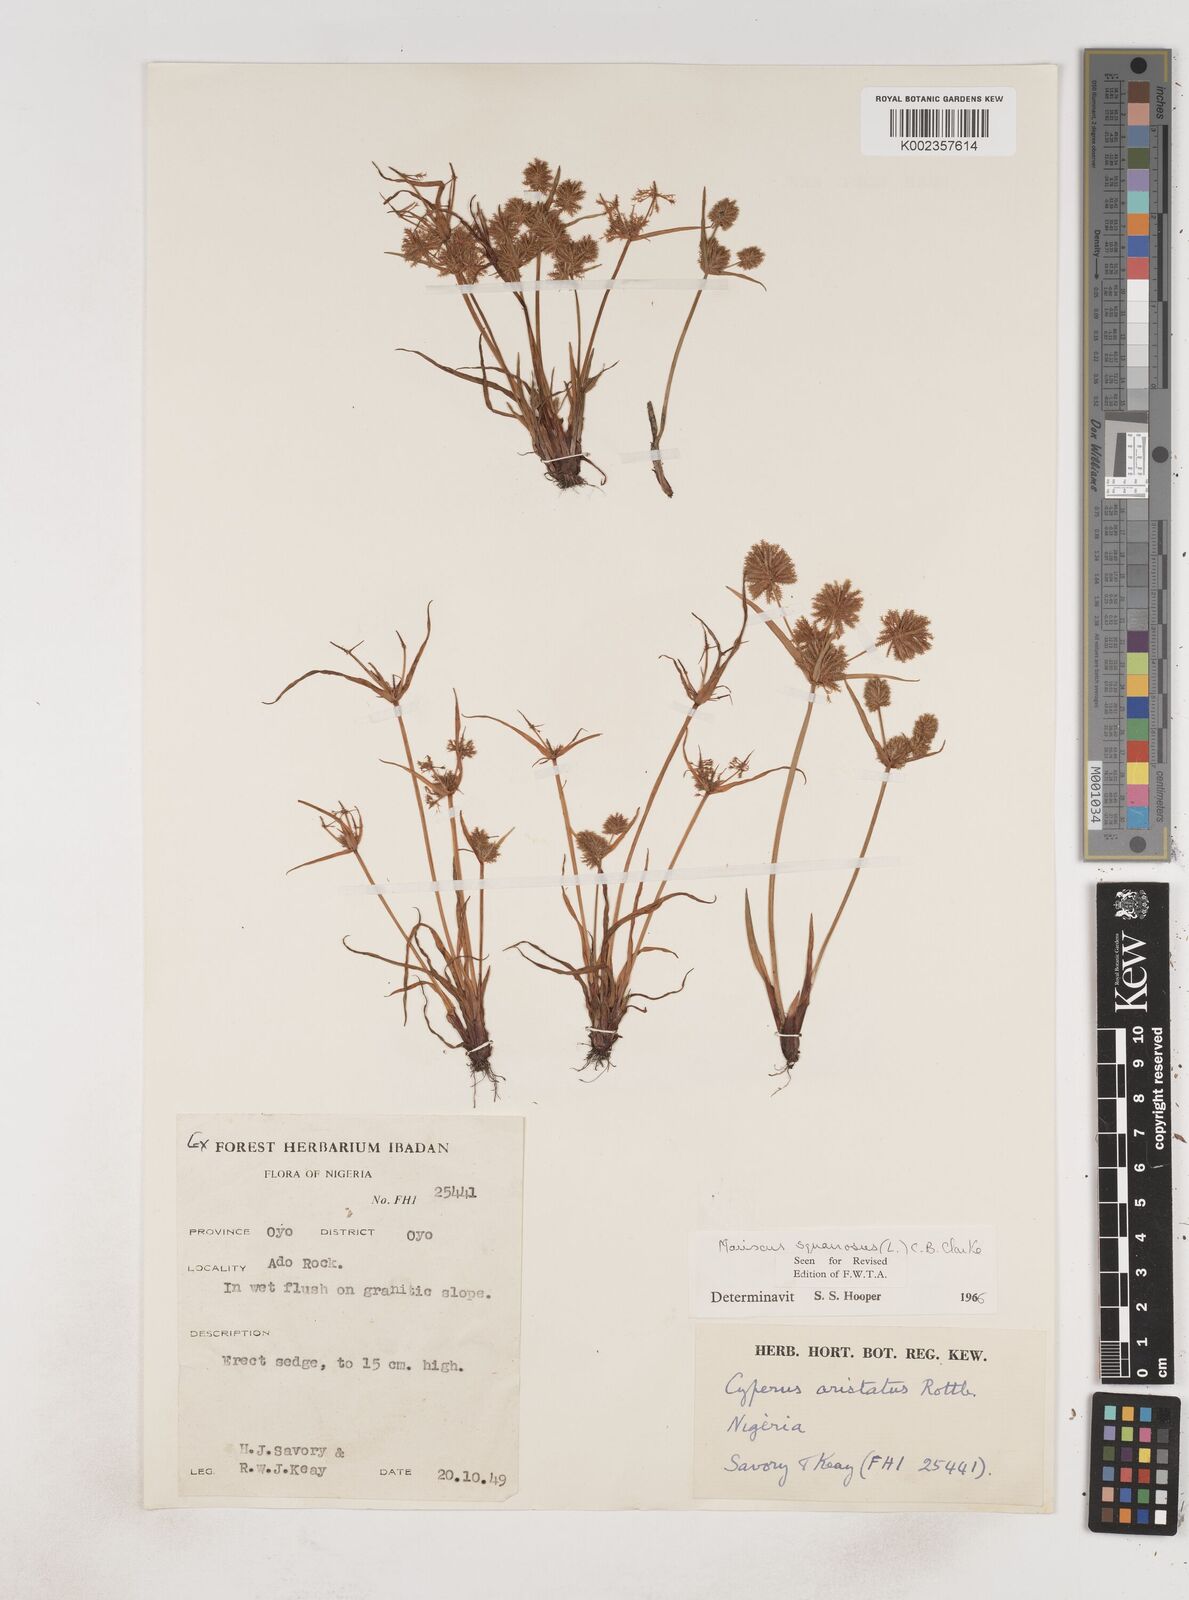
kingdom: Plantae
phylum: Tracheophyta
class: Liliopsida
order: Poales
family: Cyperaceae
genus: Cyperus
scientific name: Cyperus squarrosus
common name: Awned cyperus
